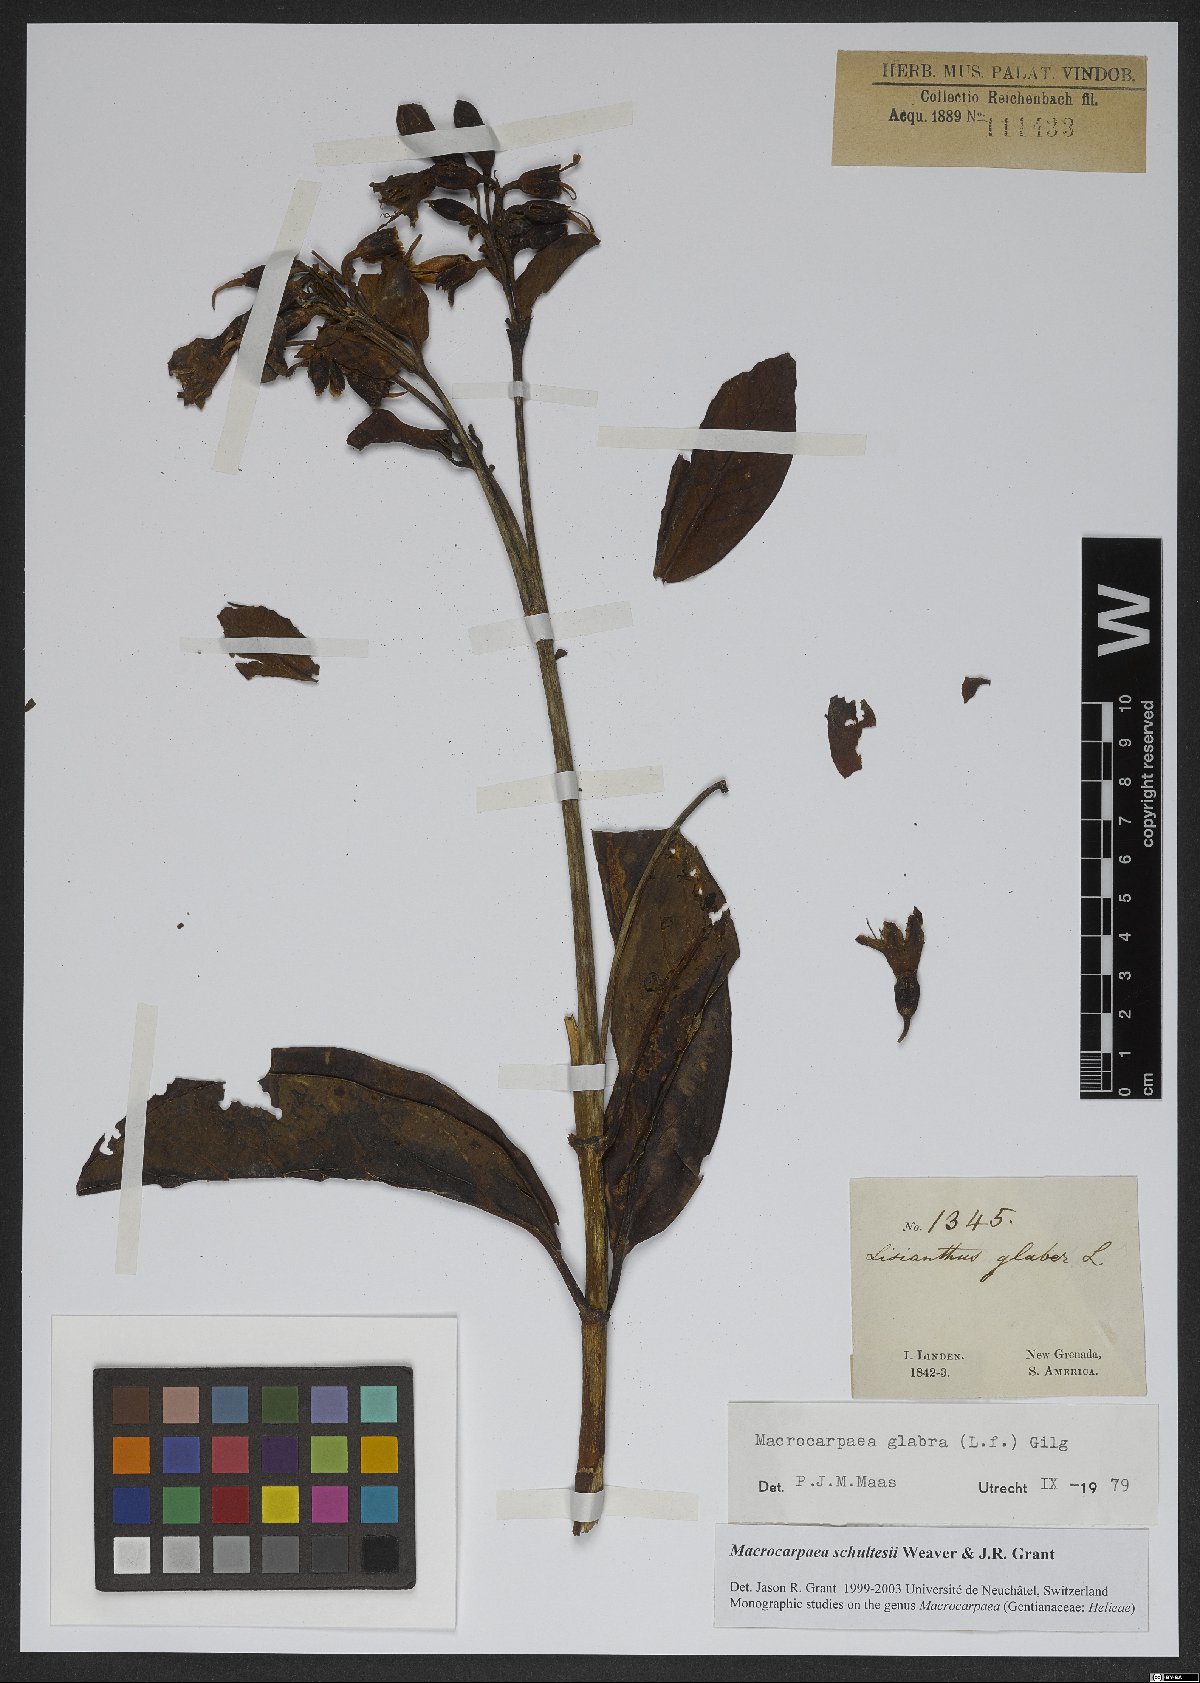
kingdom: Plantae
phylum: Tracheophyta
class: Magnoliopsida
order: Gentianales
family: Gentianaceae
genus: Macrocarpaea
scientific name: Macrocarpaea schultesii
